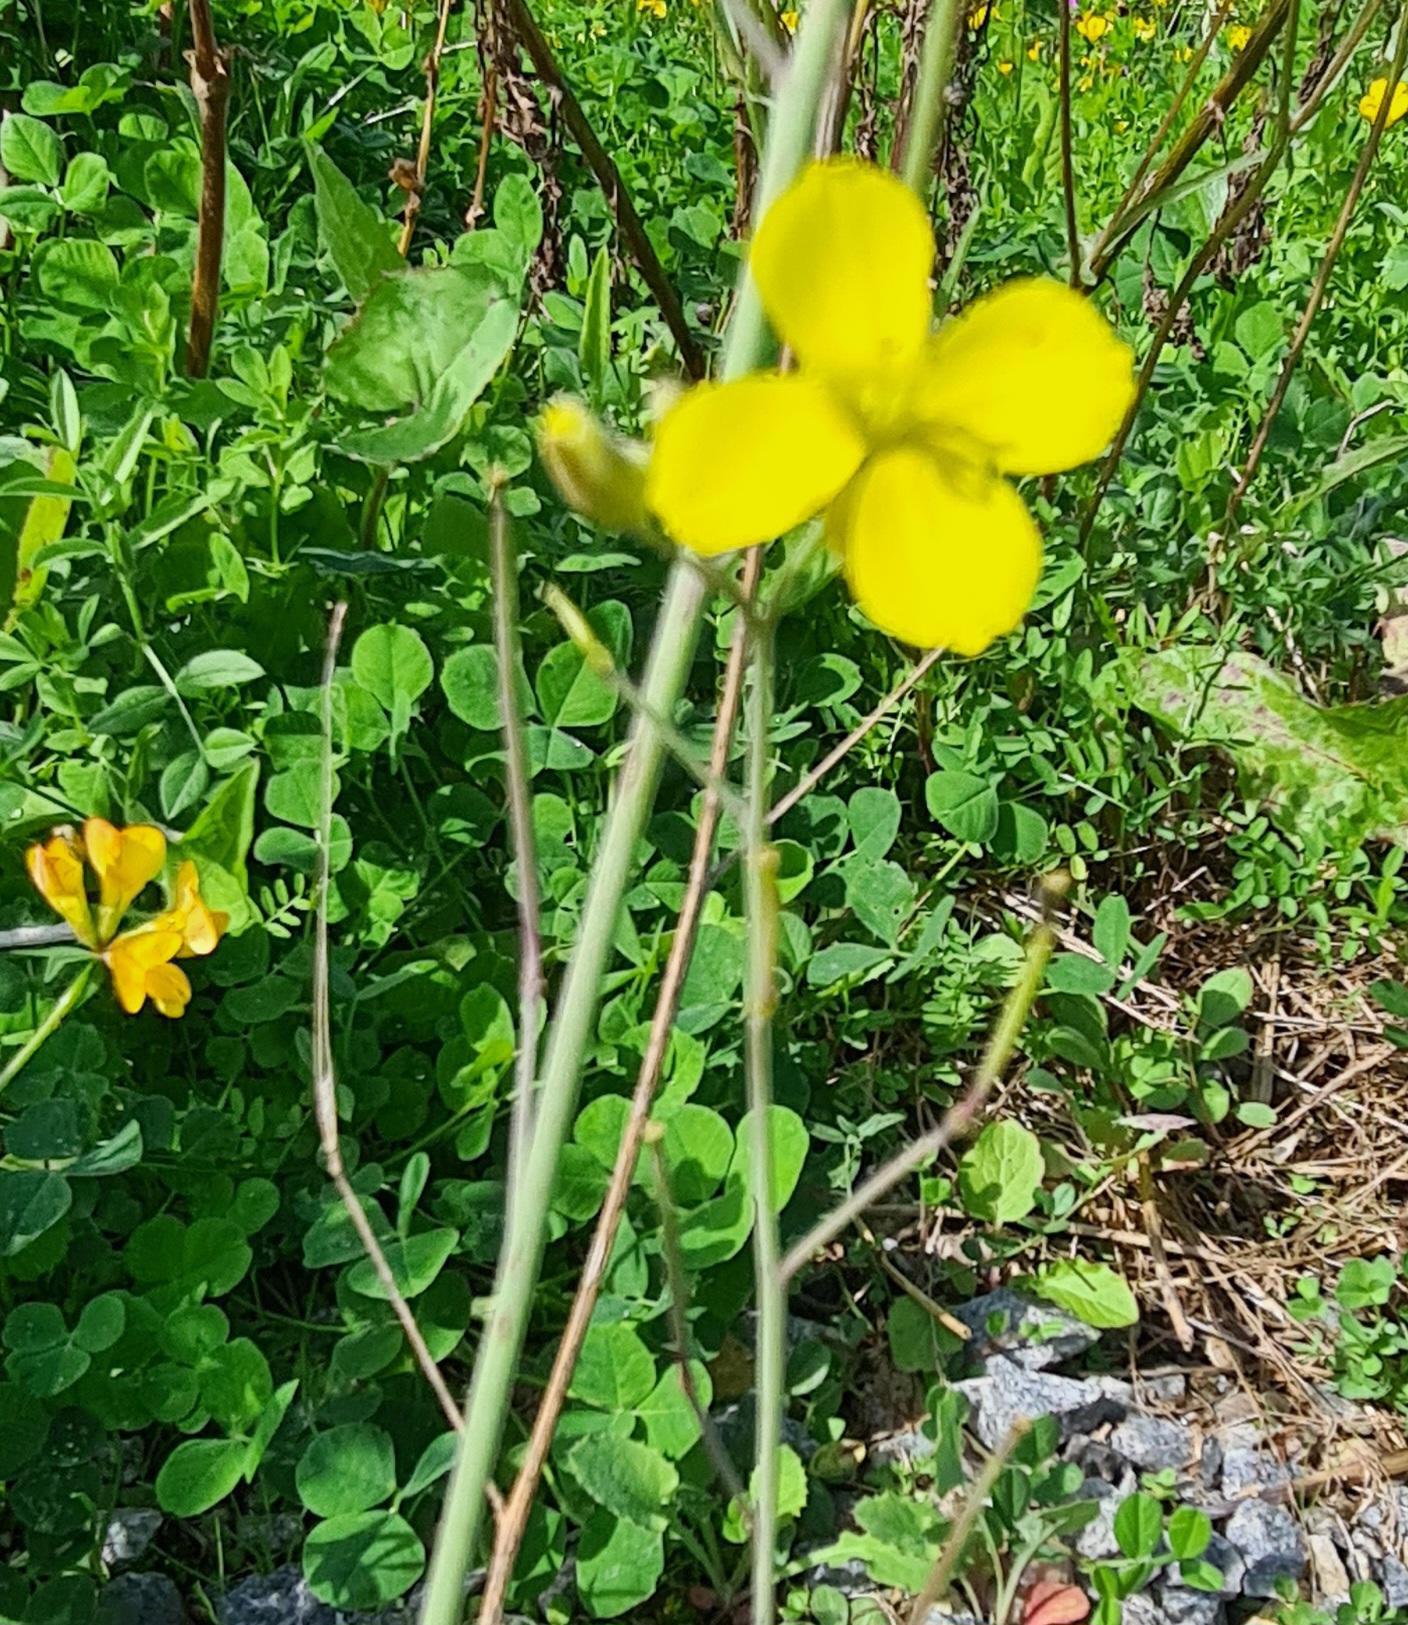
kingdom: Plantae
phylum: Tracheophyta
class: Magnoliopsida
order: Brassicales
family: Brassicaceae
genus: Diplotaxis
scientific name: Diplotaxis tenuifolia
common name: Sandsennep
